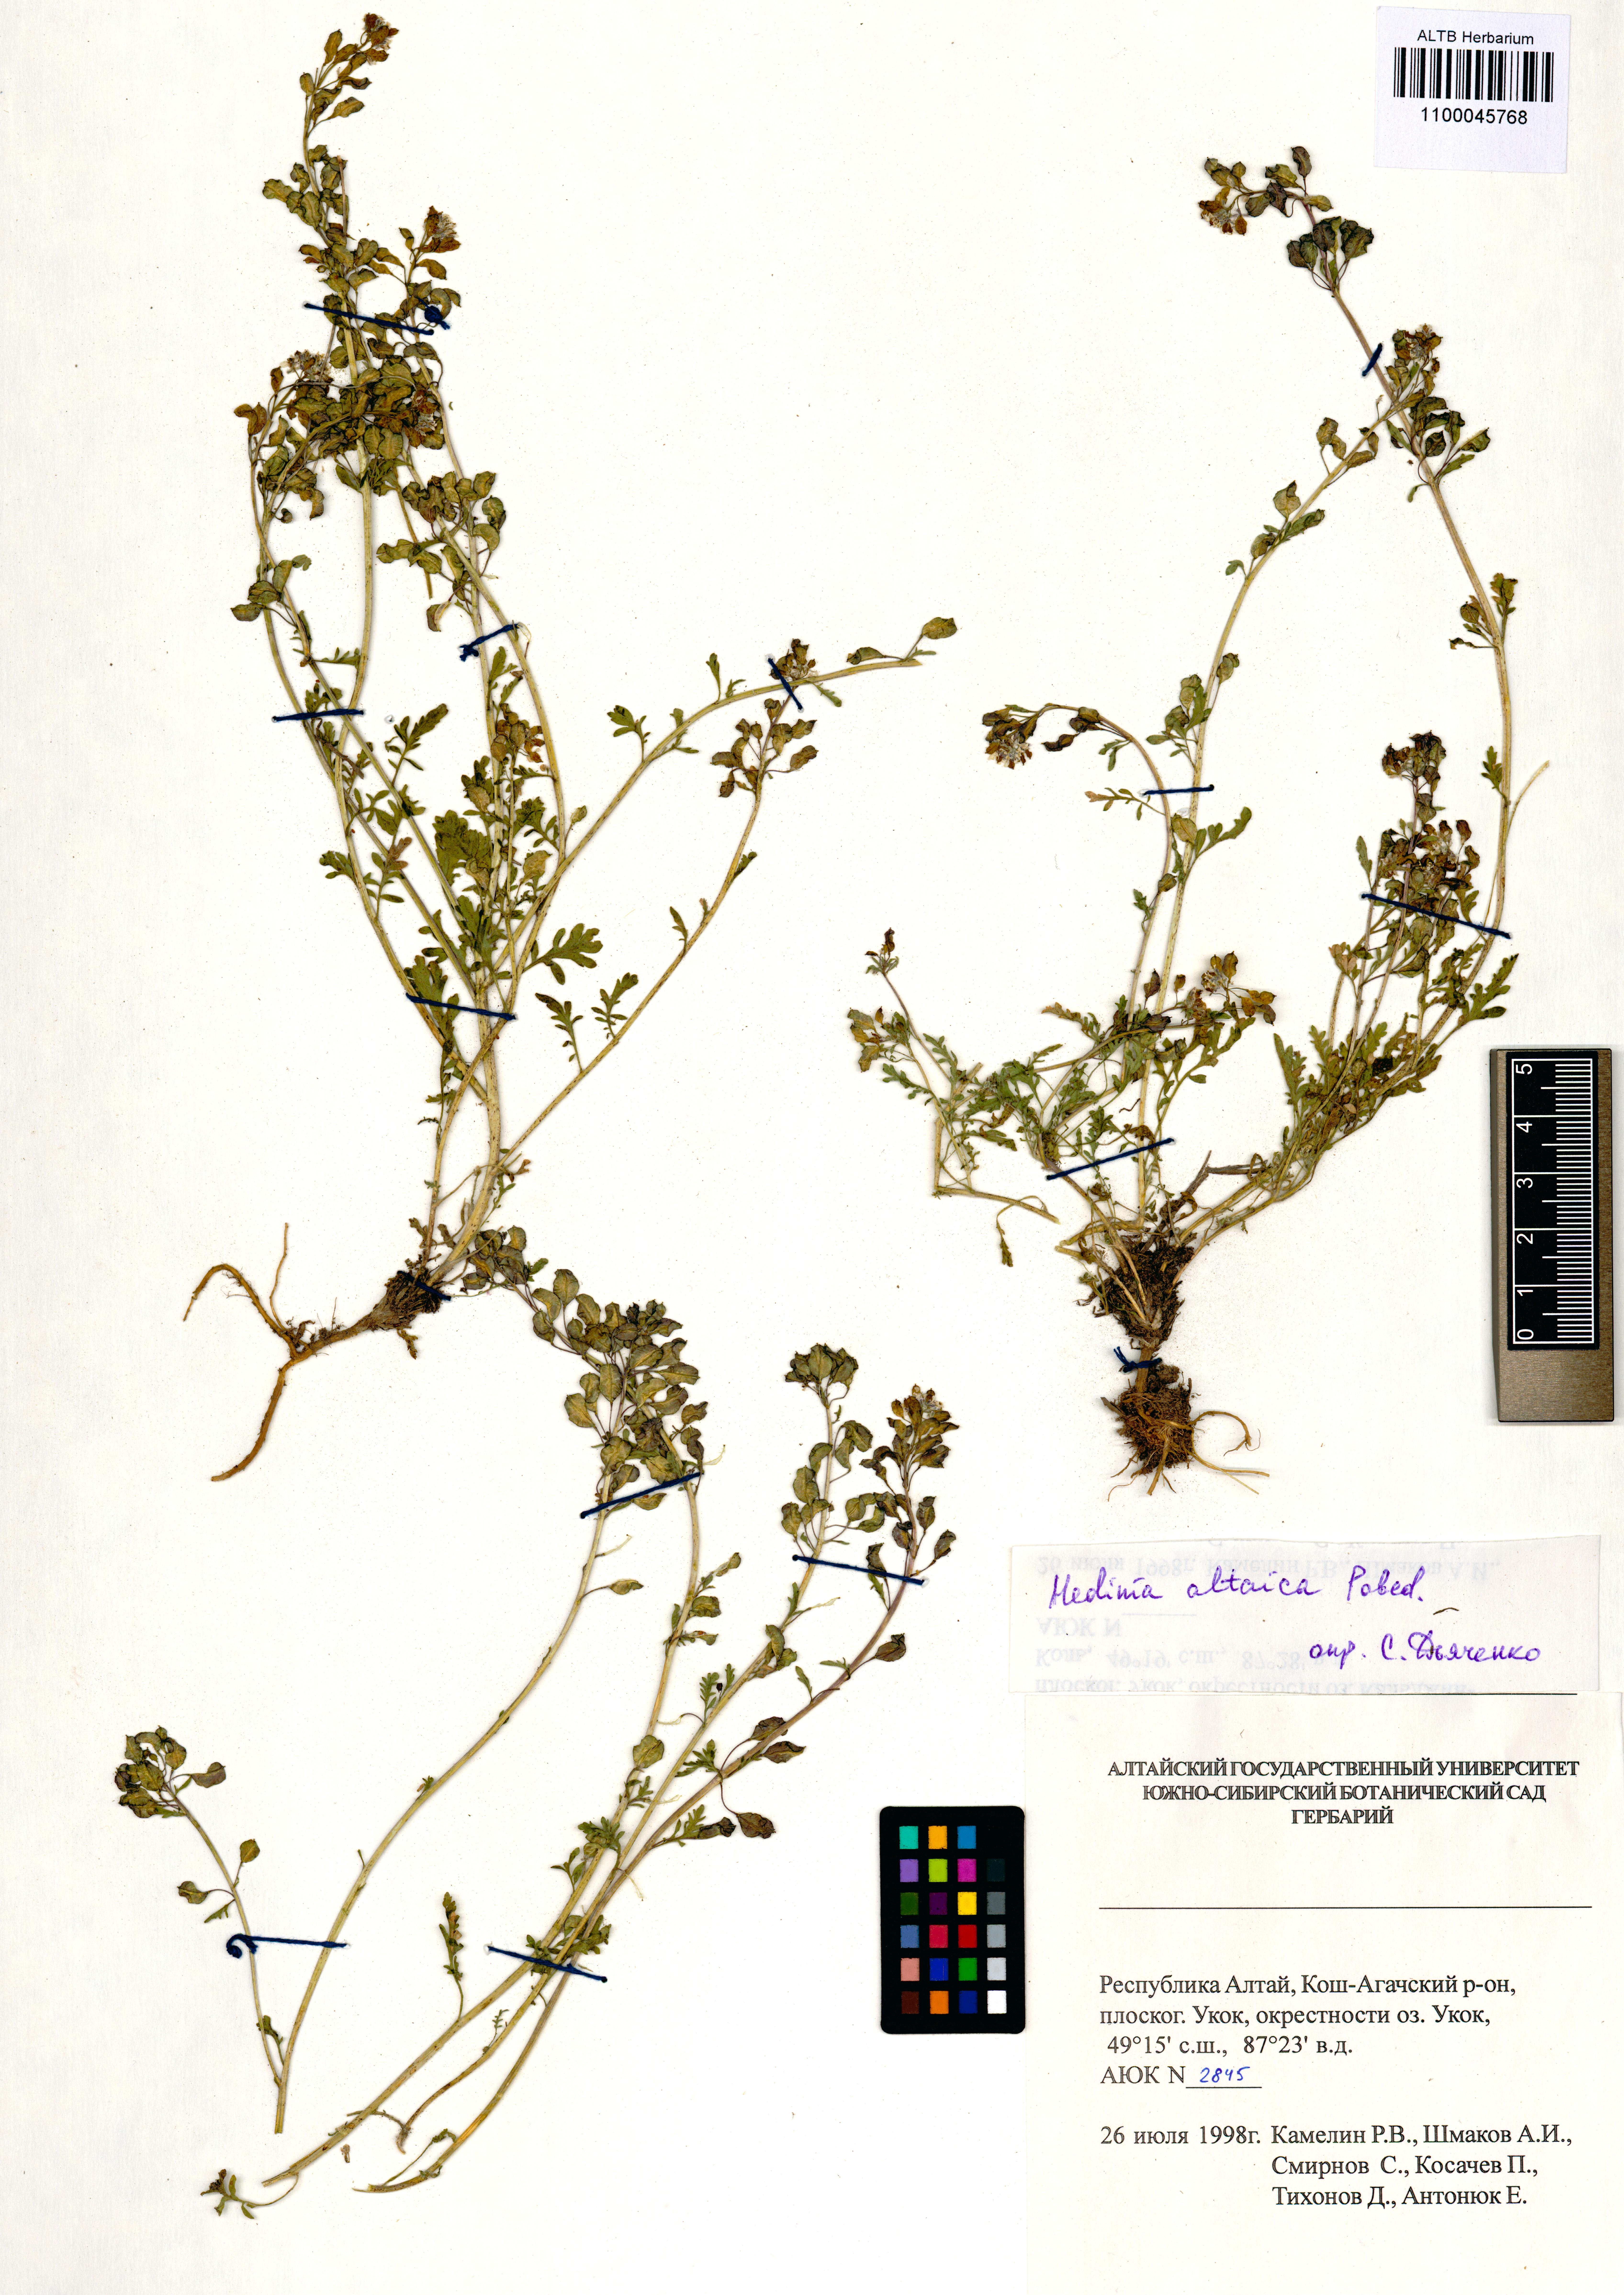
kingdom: Plantae
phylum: Tracheophyta
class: Magnoliopsida
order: Brassicales
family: Brassicaceae
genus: Smelowskia
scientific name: Smelowskia altaica
